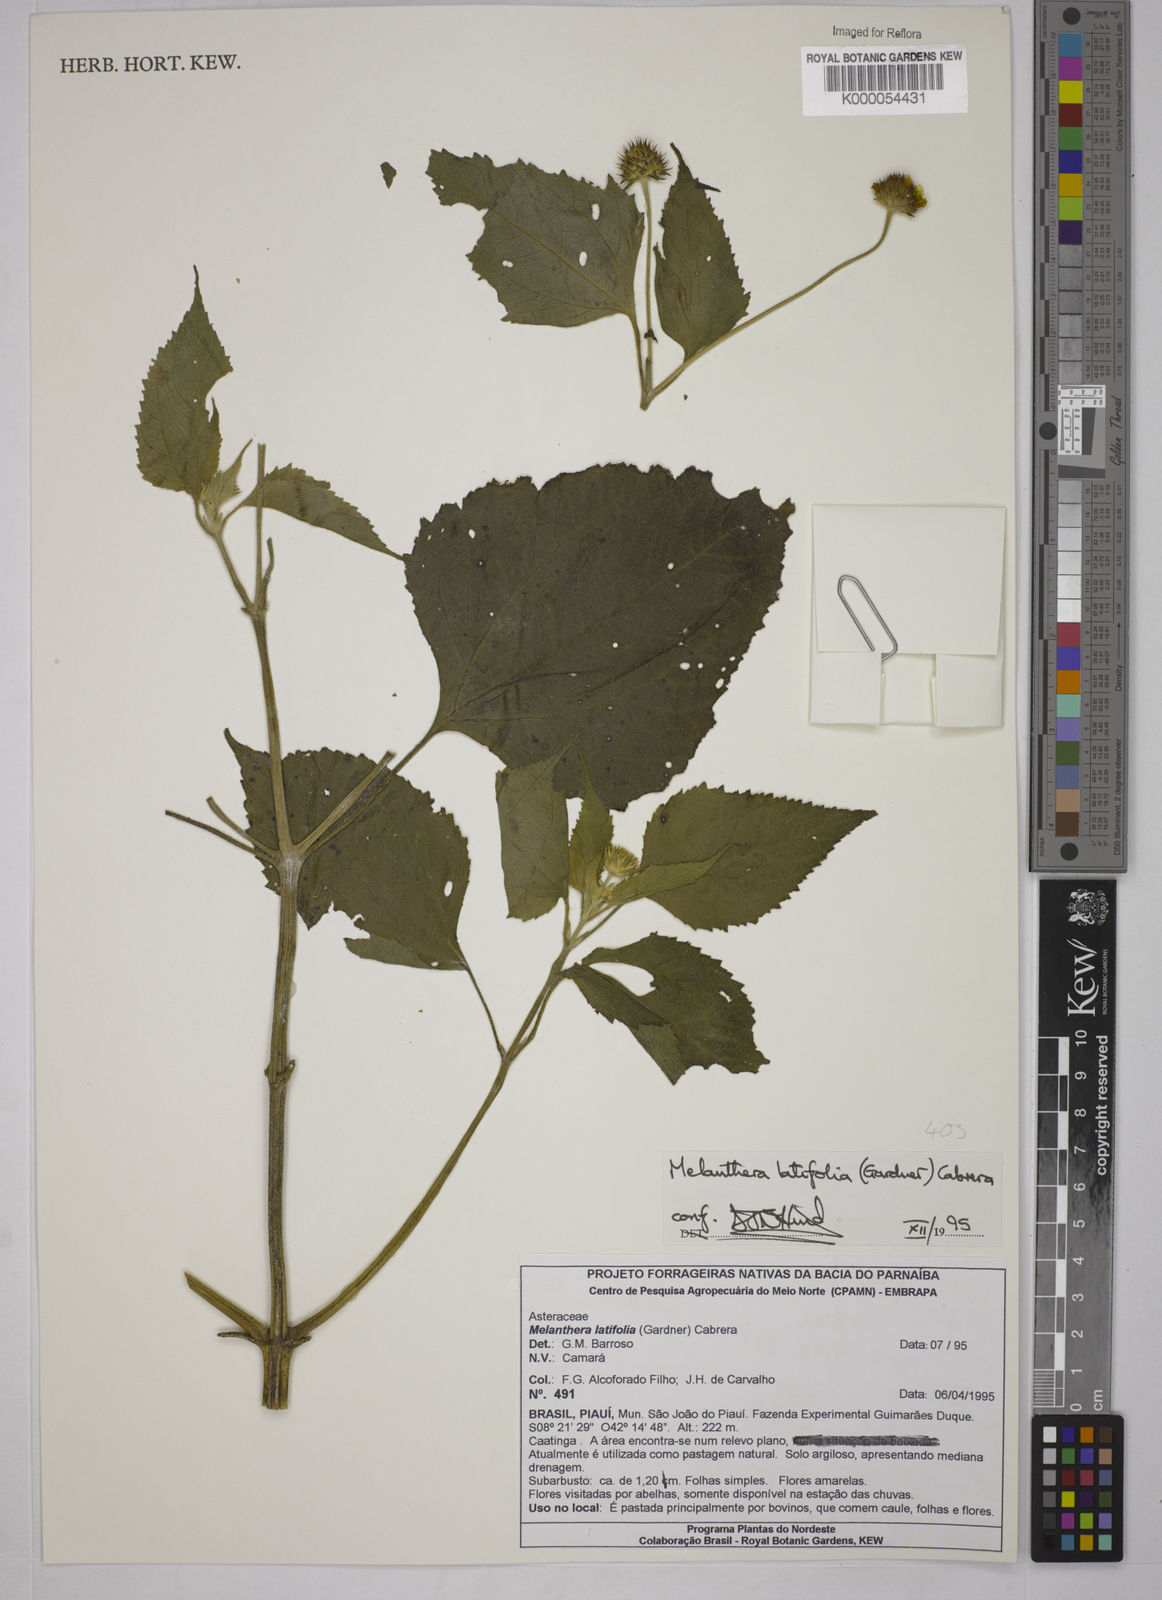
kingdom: Plantae
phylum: Tracheophyta
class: Magnoliopsida
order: Asterales
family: Asteraceae
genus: Echinocephalum
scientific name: Echinocephalum latifolium
